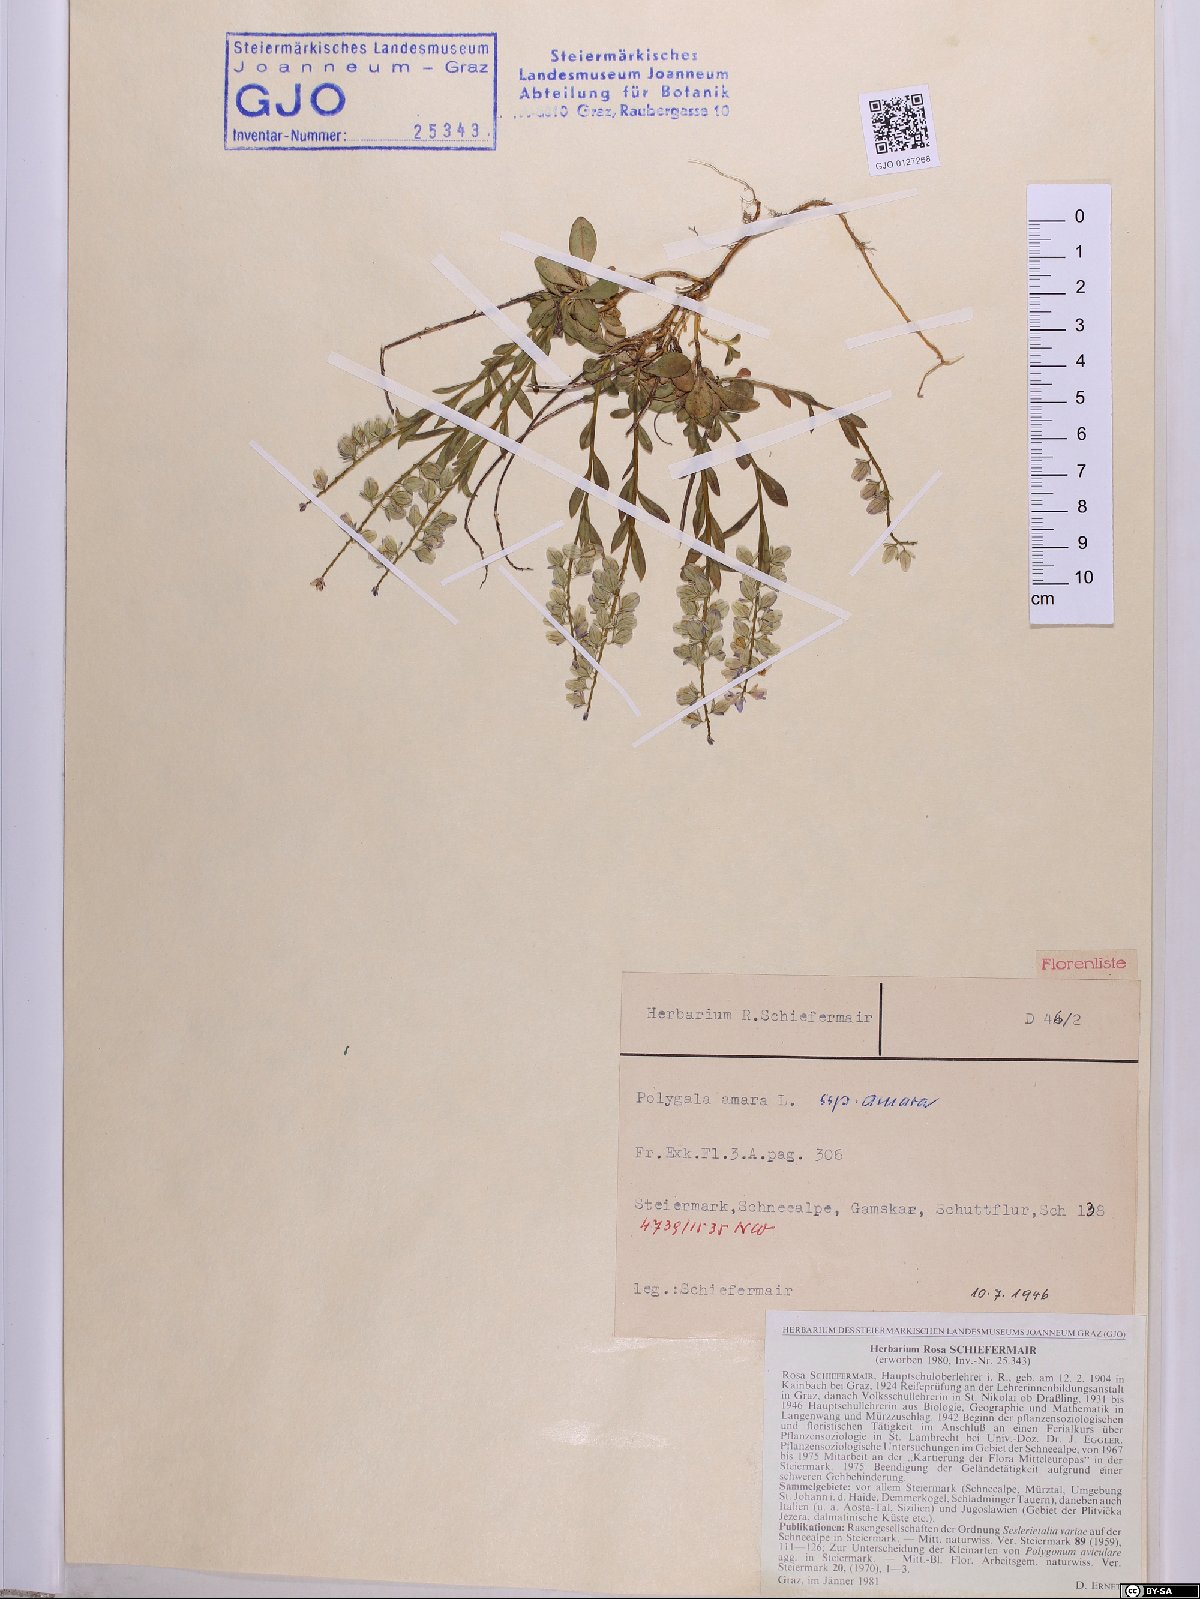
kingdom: Plantae
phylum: Tracheophyta
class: Magnoliopsida
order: Fabales
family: Polygalaceae
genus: Polygala
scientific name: Polygala amara
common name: Milkwort
